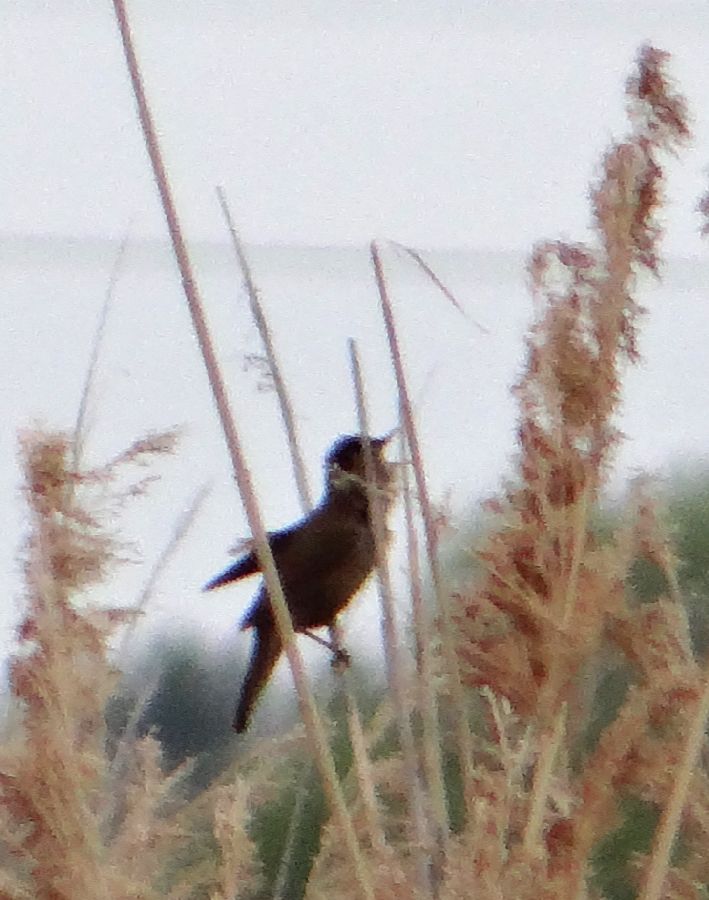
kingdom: Animalia
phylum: Chordata
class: Aves
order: Passeriformes
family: Locustellidae
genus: Locustella
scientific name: Locustella luscinioides
